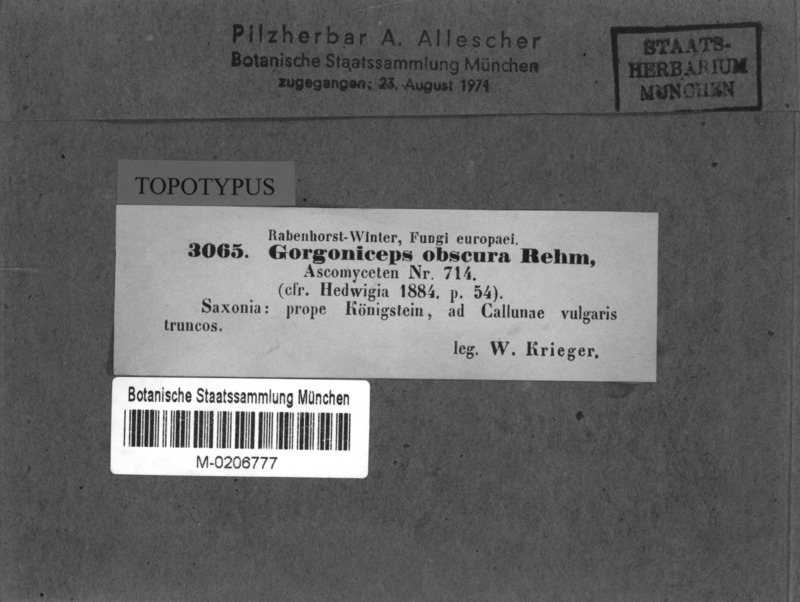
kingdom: Fungi
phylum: Ascomycota
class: Leotiomycetes
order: Helotiales
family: Mollisiaceae
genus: Mollisia
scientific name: Mollisia obscura
